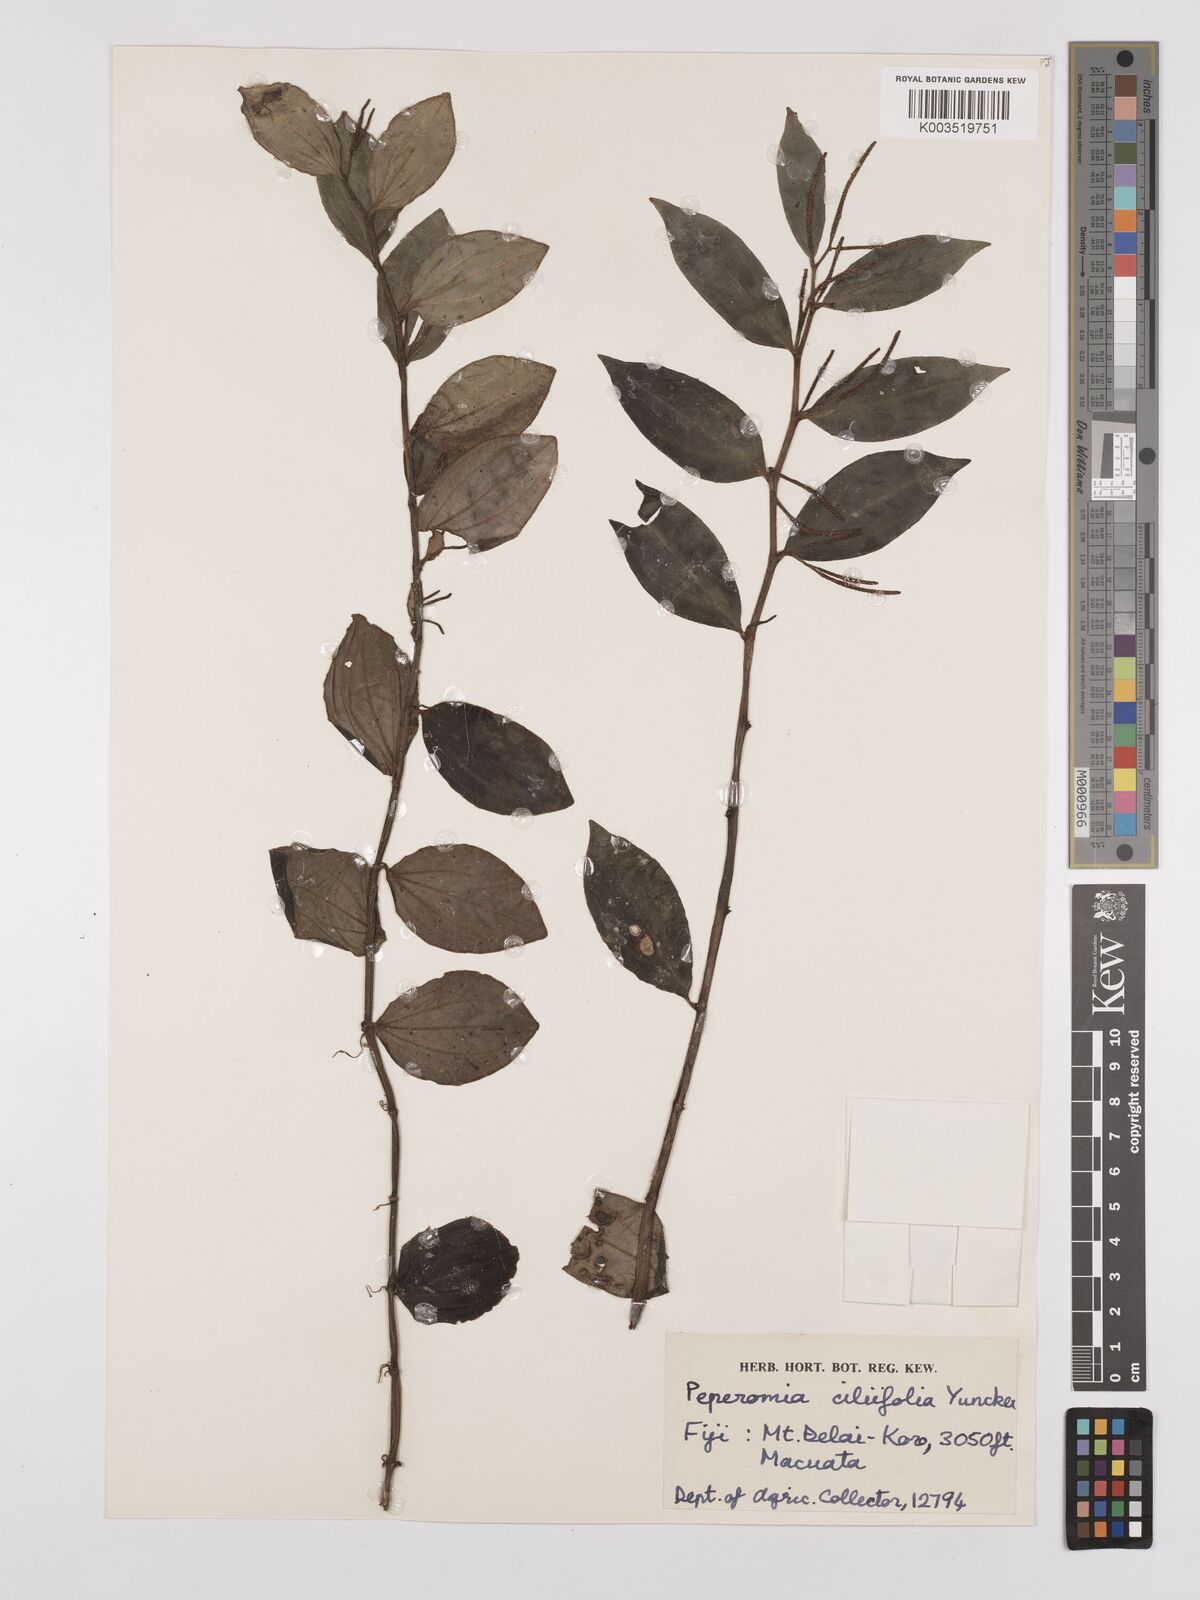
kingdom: Plantae
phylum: Tracheophyta
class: Magnoliopsida
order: Piperales
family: Piperaceae
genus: Peperomia
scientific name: Peperomia cilifolia
